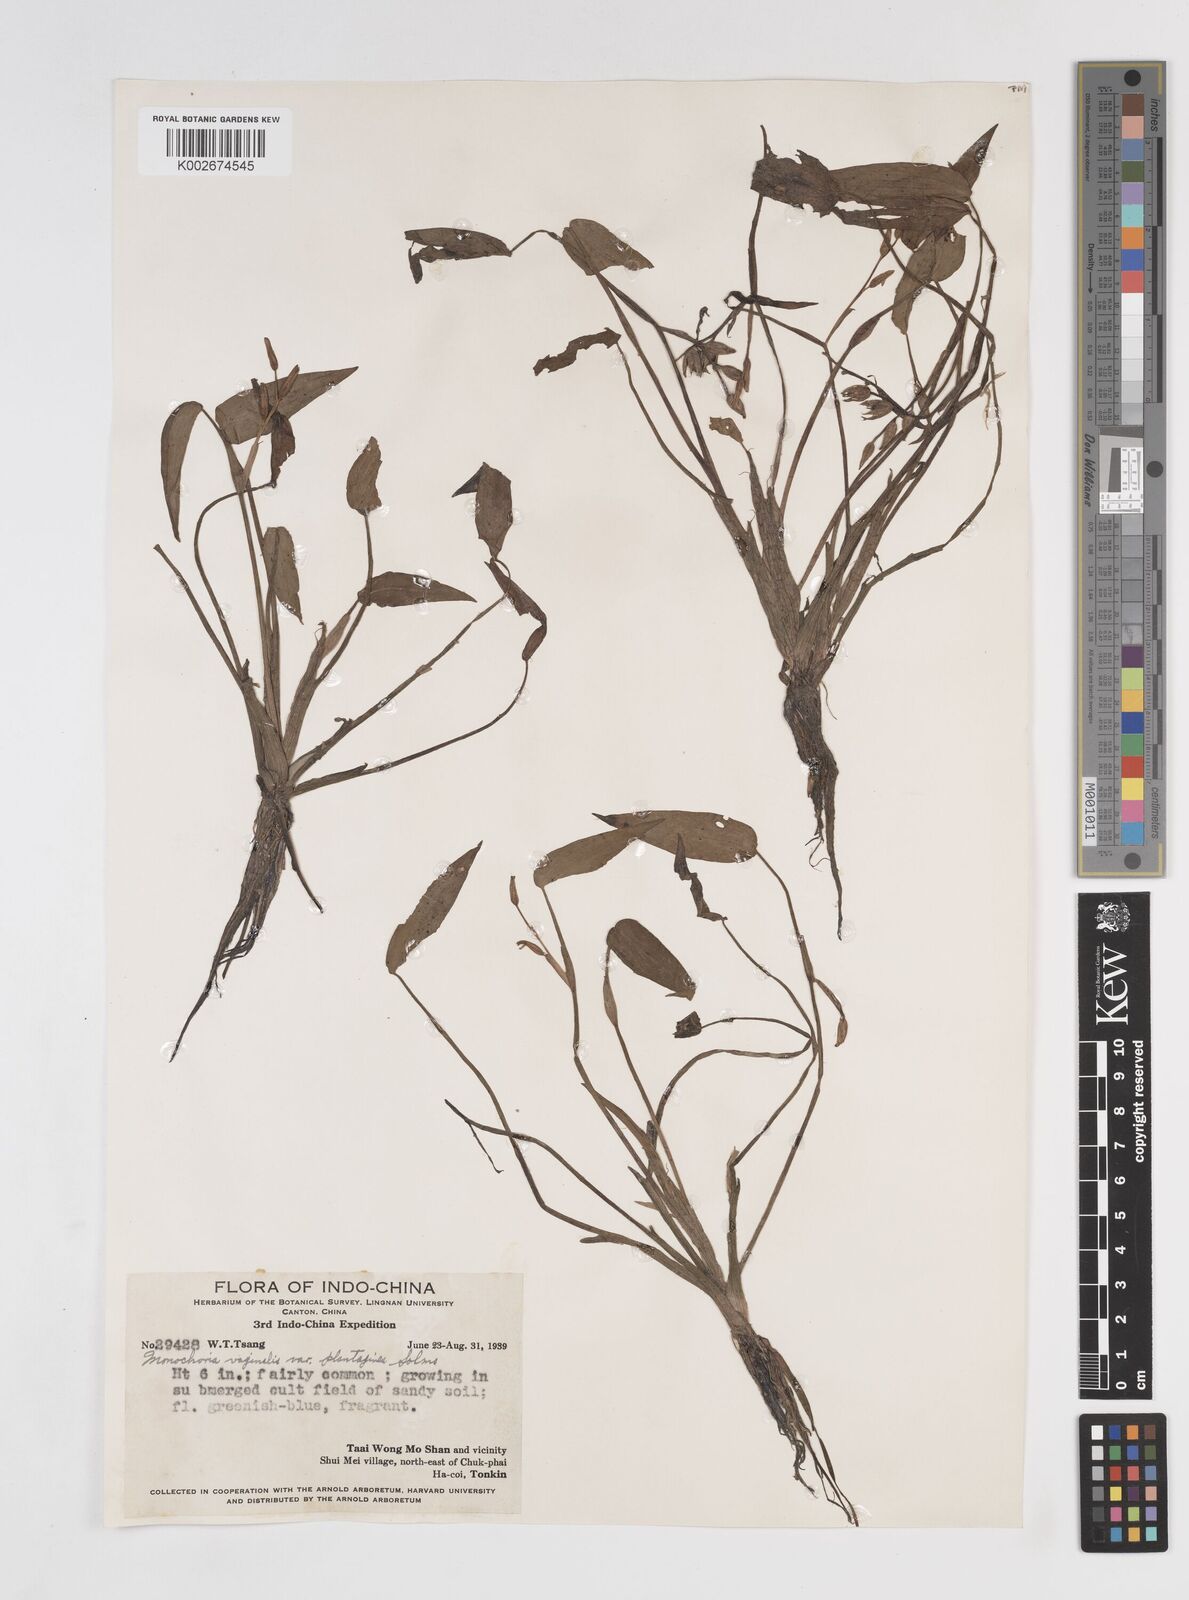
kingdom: Plantae
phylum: Tracheophyta
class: Liliopsida
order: Commelinales
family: Pontederiaceae
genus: Pontederia
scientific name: Pontederia vaginalis
